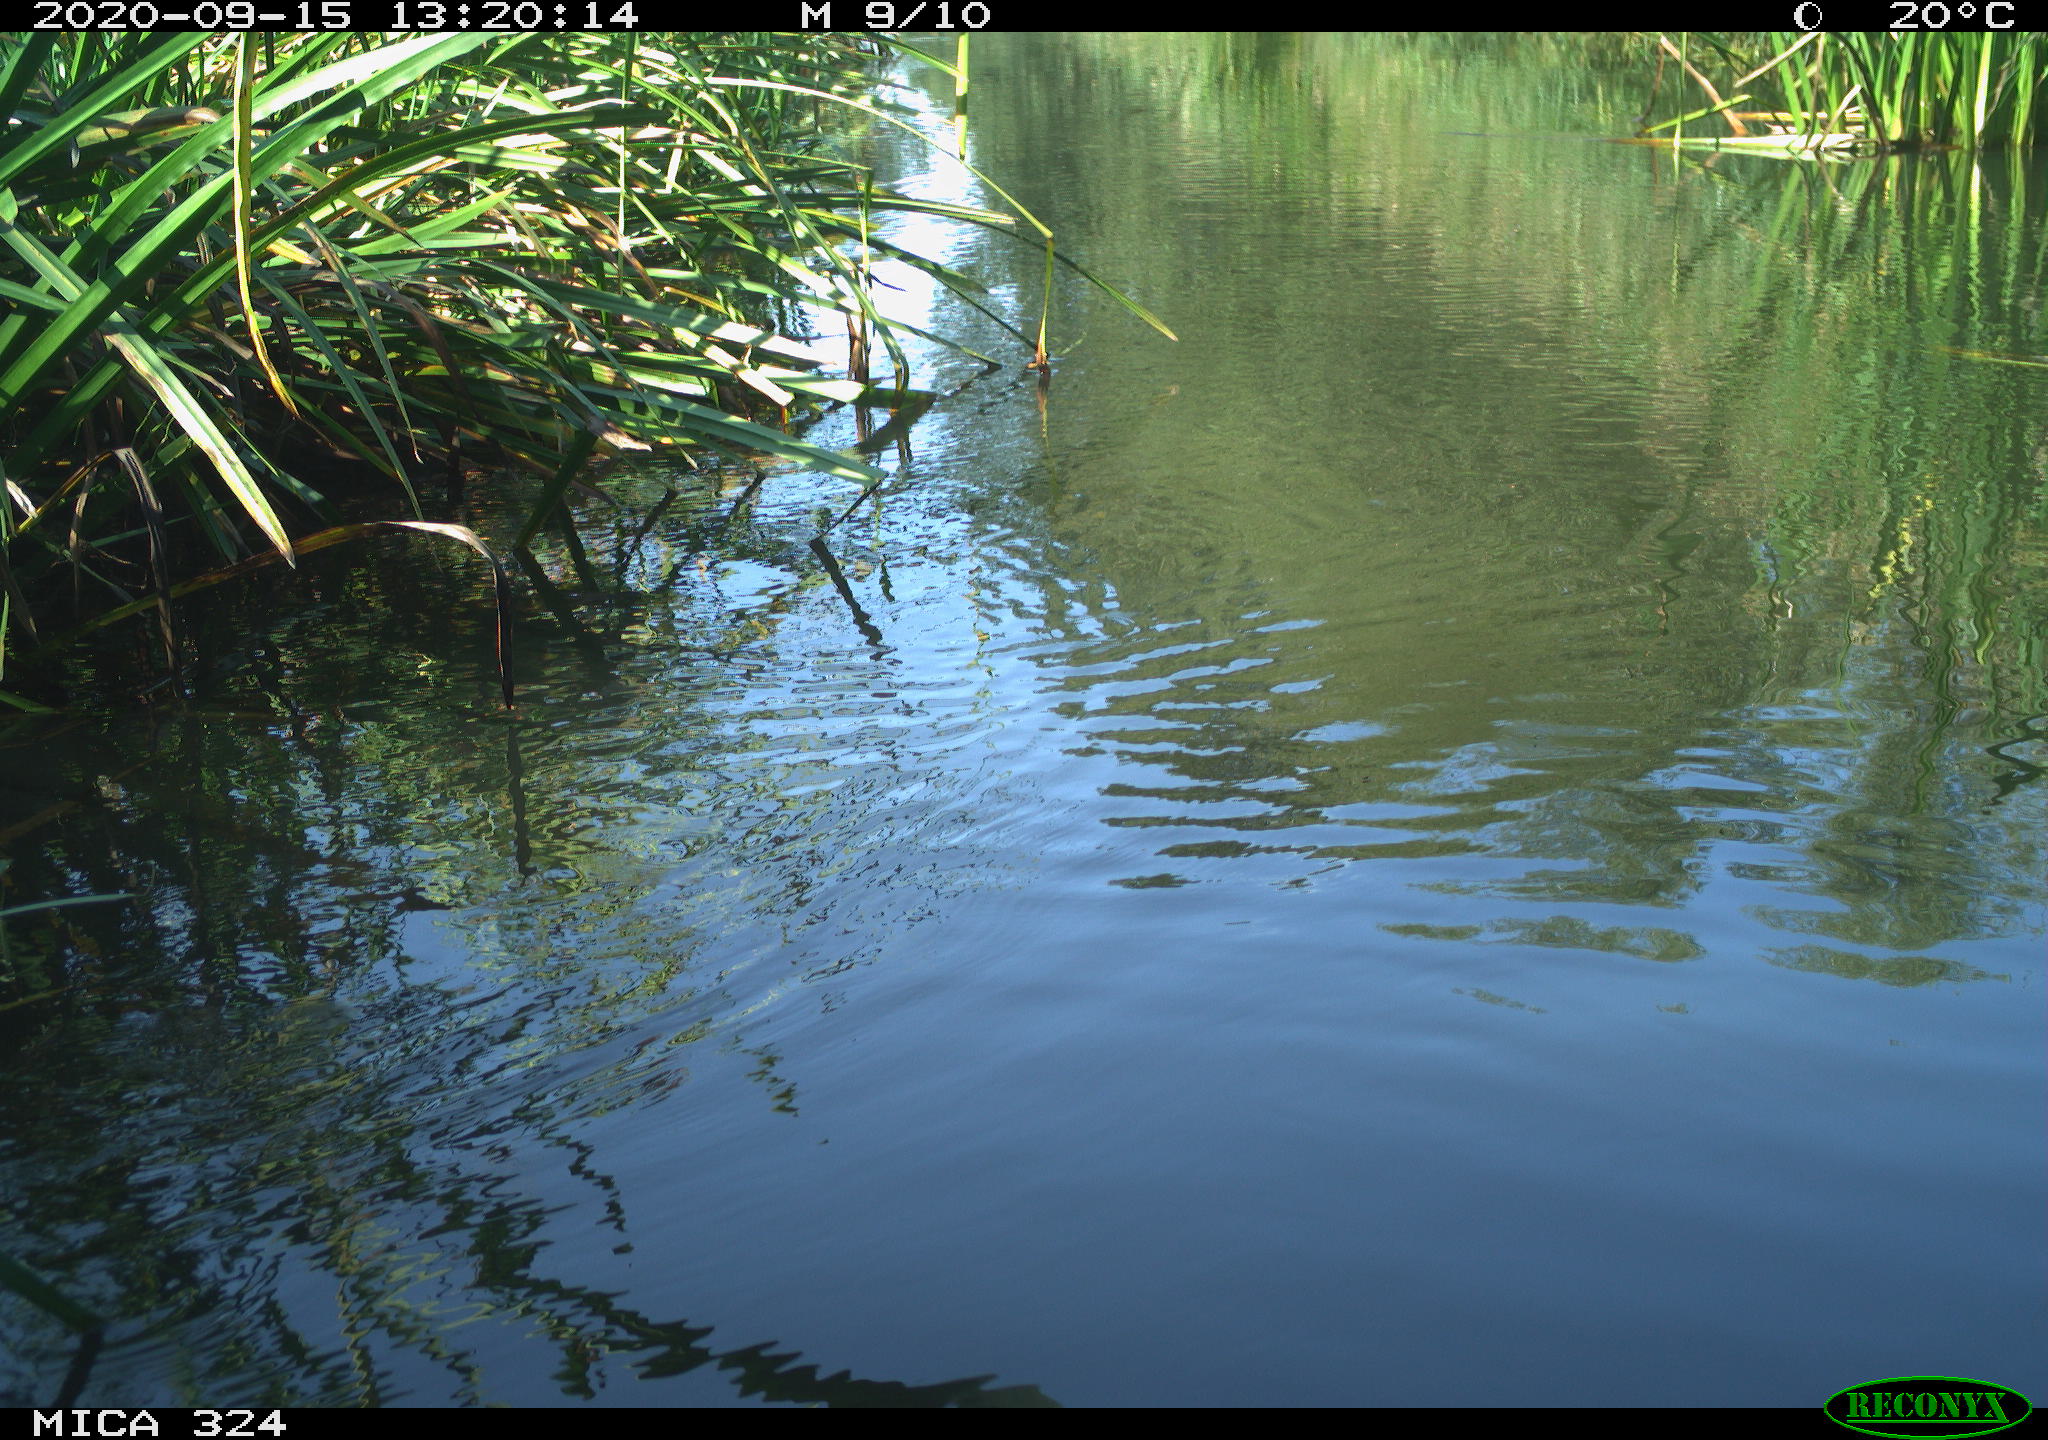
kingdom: Animalia
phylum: Chordata
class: Aves
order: Gruiformes
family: Rallidae
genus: Gallinula
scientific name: Gallinula chloropus
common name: Common moorhen
